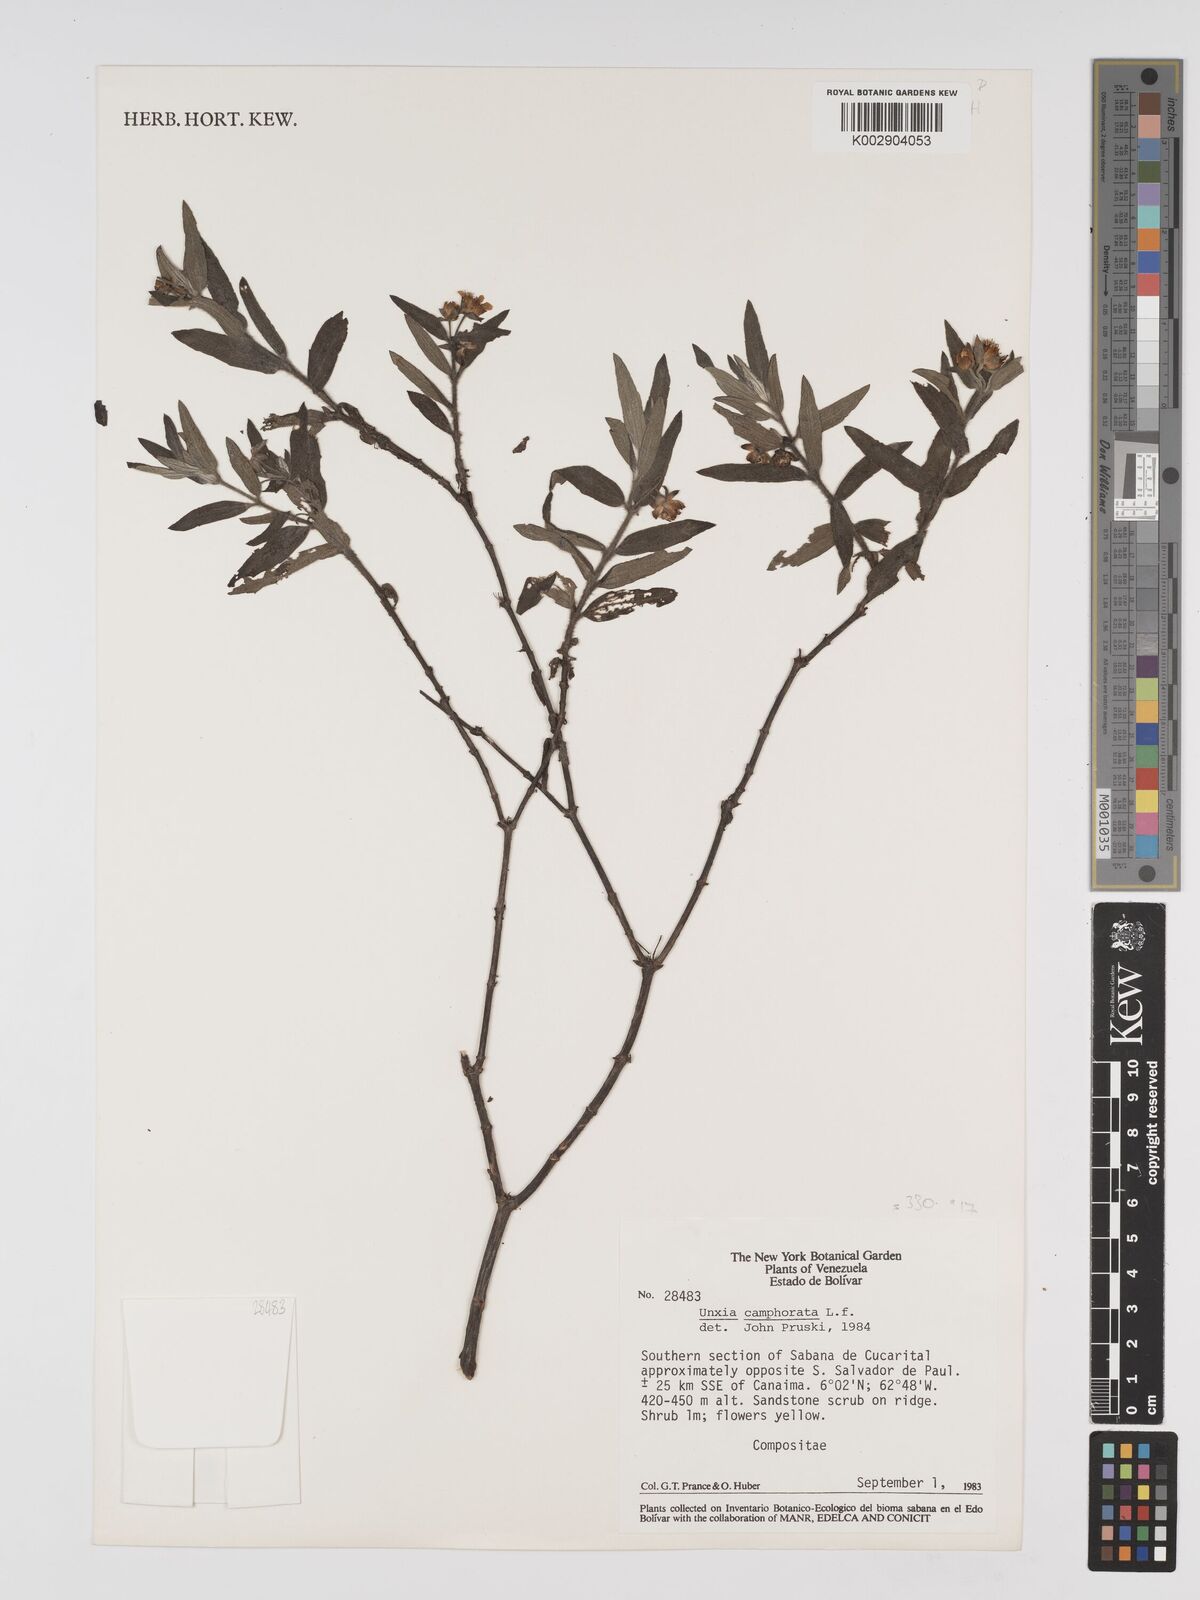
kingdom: Plantae
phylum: Tracheophyta
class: Magnoliopsida
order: Asterales
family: Asteraceae
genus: Unxia
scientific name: Unxia camphorata
